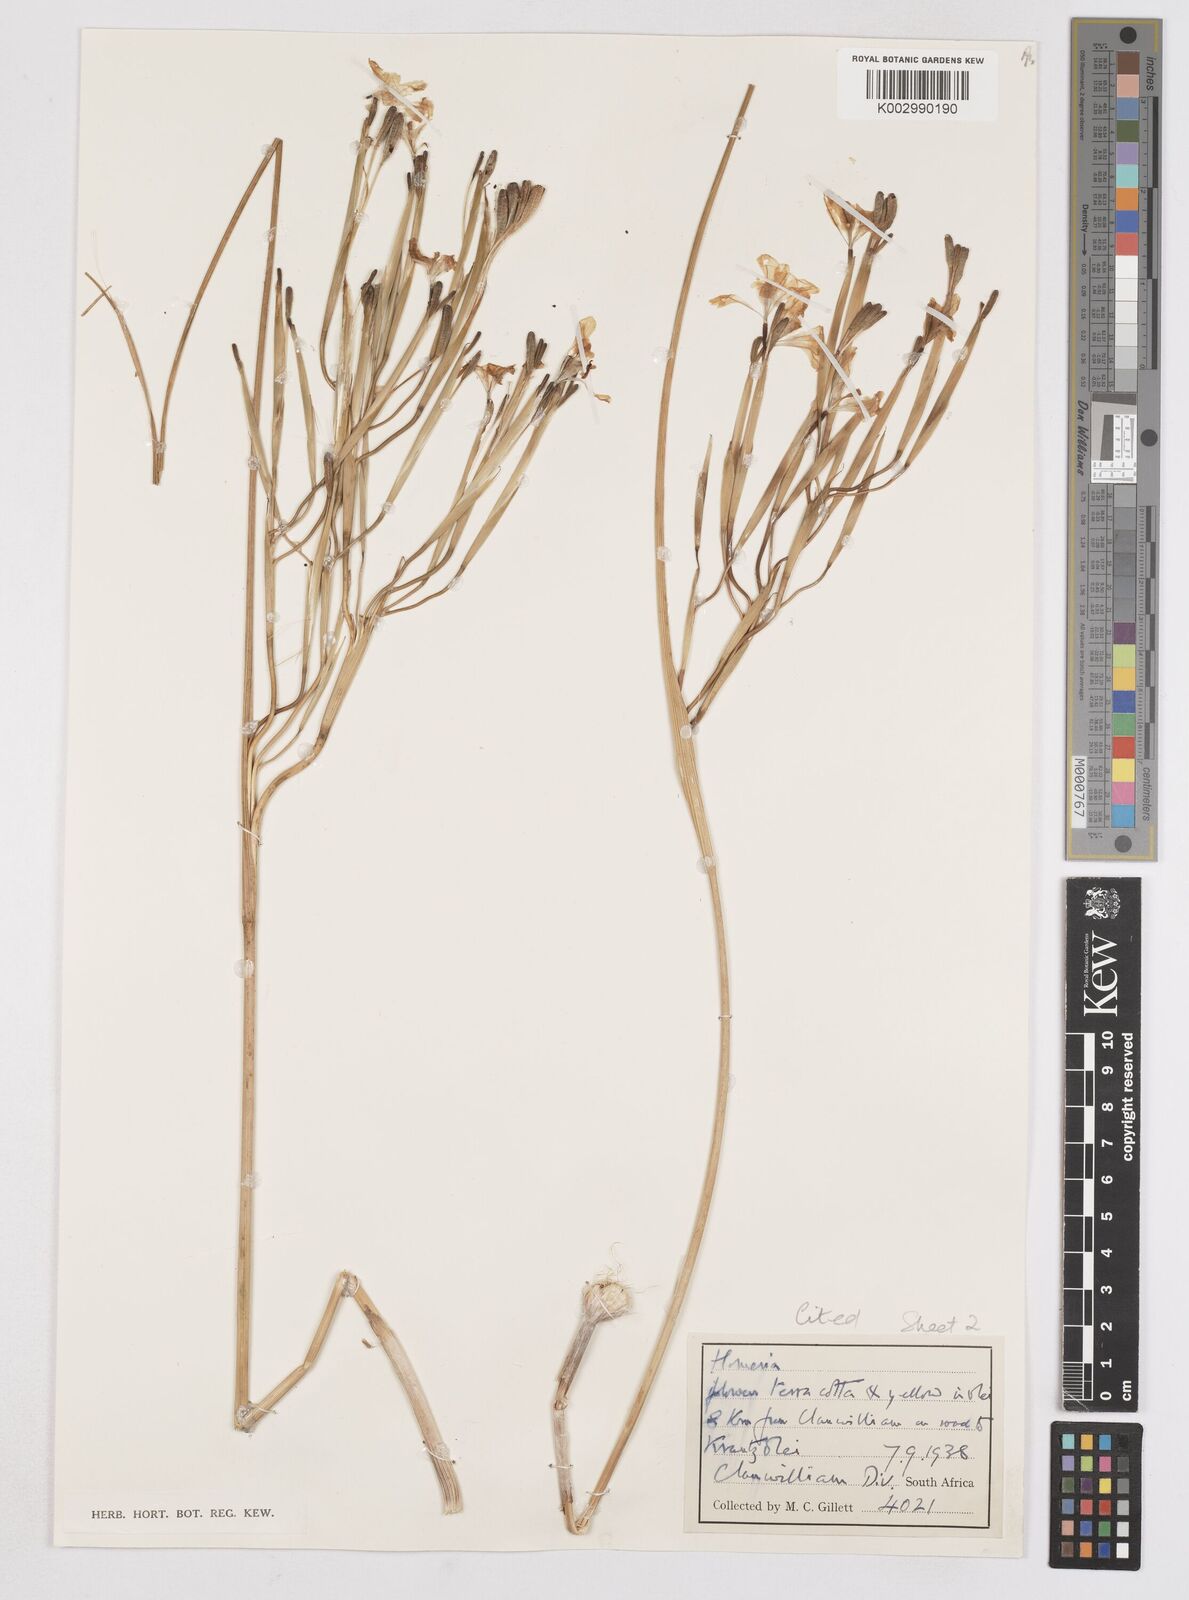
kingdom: Plantae
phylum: Tracheophyta
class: Liliopsida
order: Asparagales
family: Iridaceae
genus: Moraea
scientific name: Moraea patens
